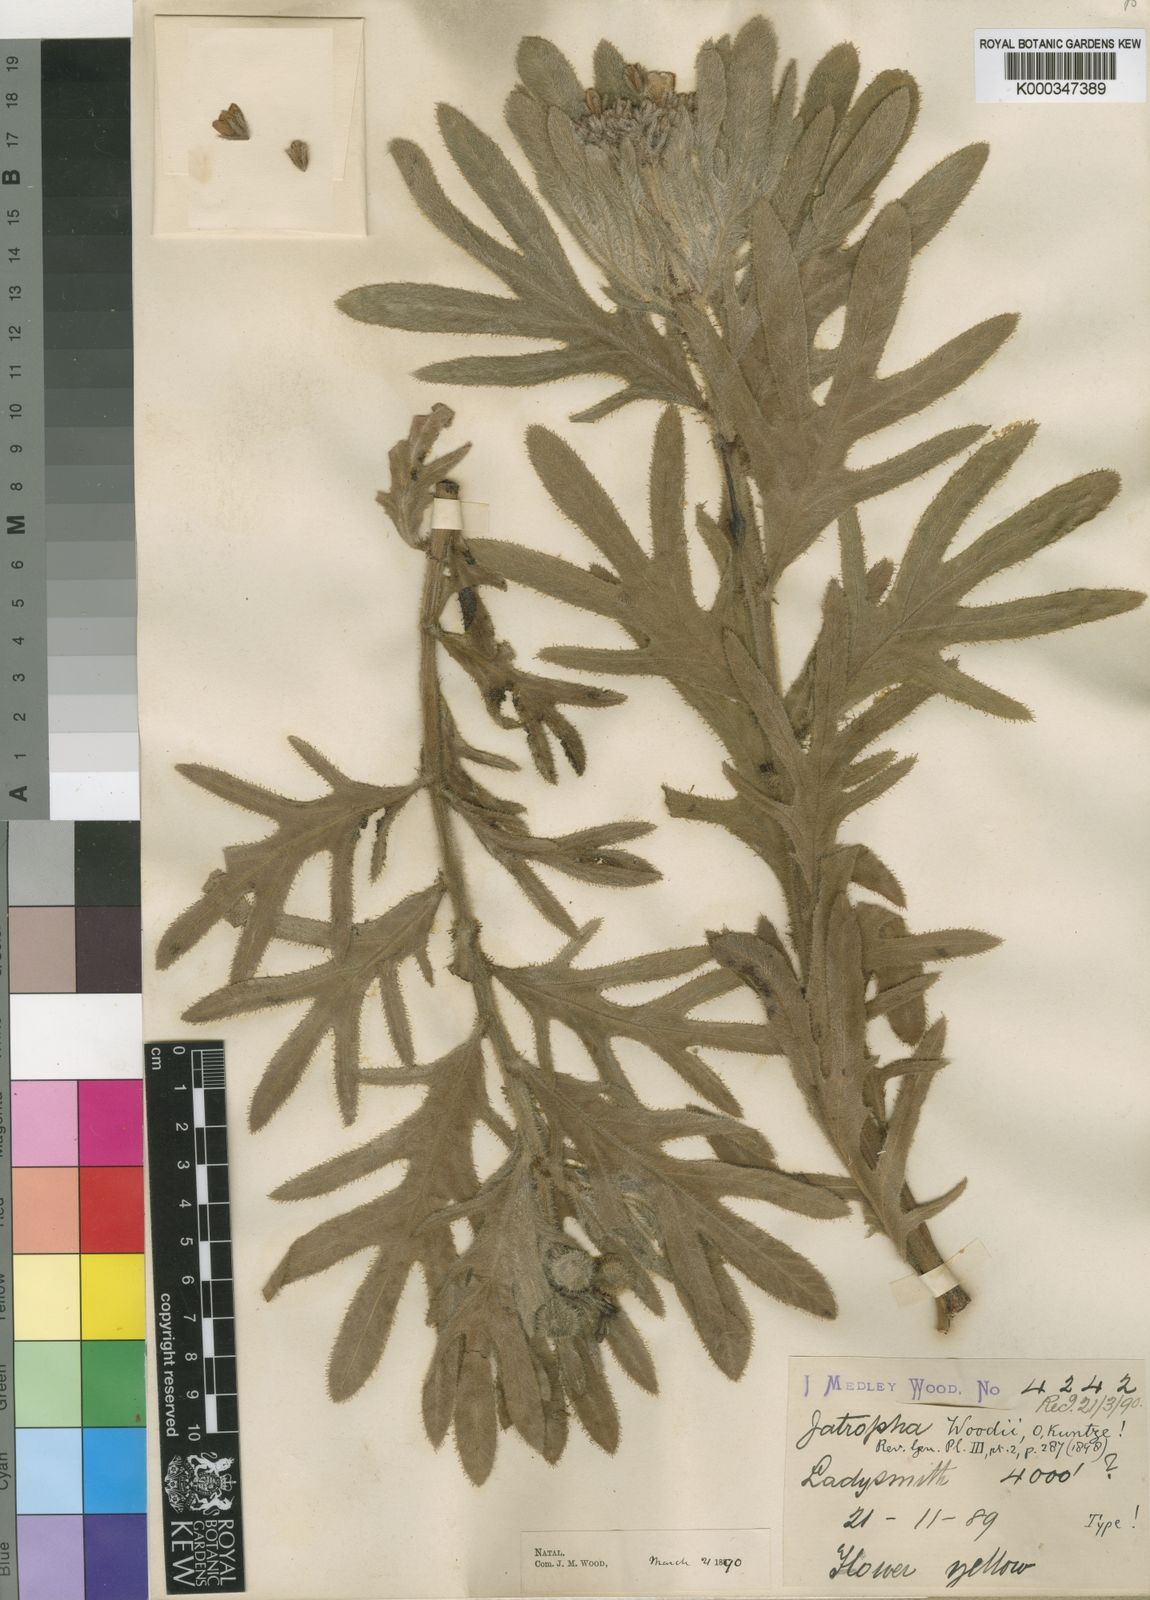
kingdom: Plantae
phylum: Tracheophyta
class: Magnoliopsida
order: Malpighiales
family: Euphorbiaceae
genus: Jatropha
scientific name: Jatropha woodii
